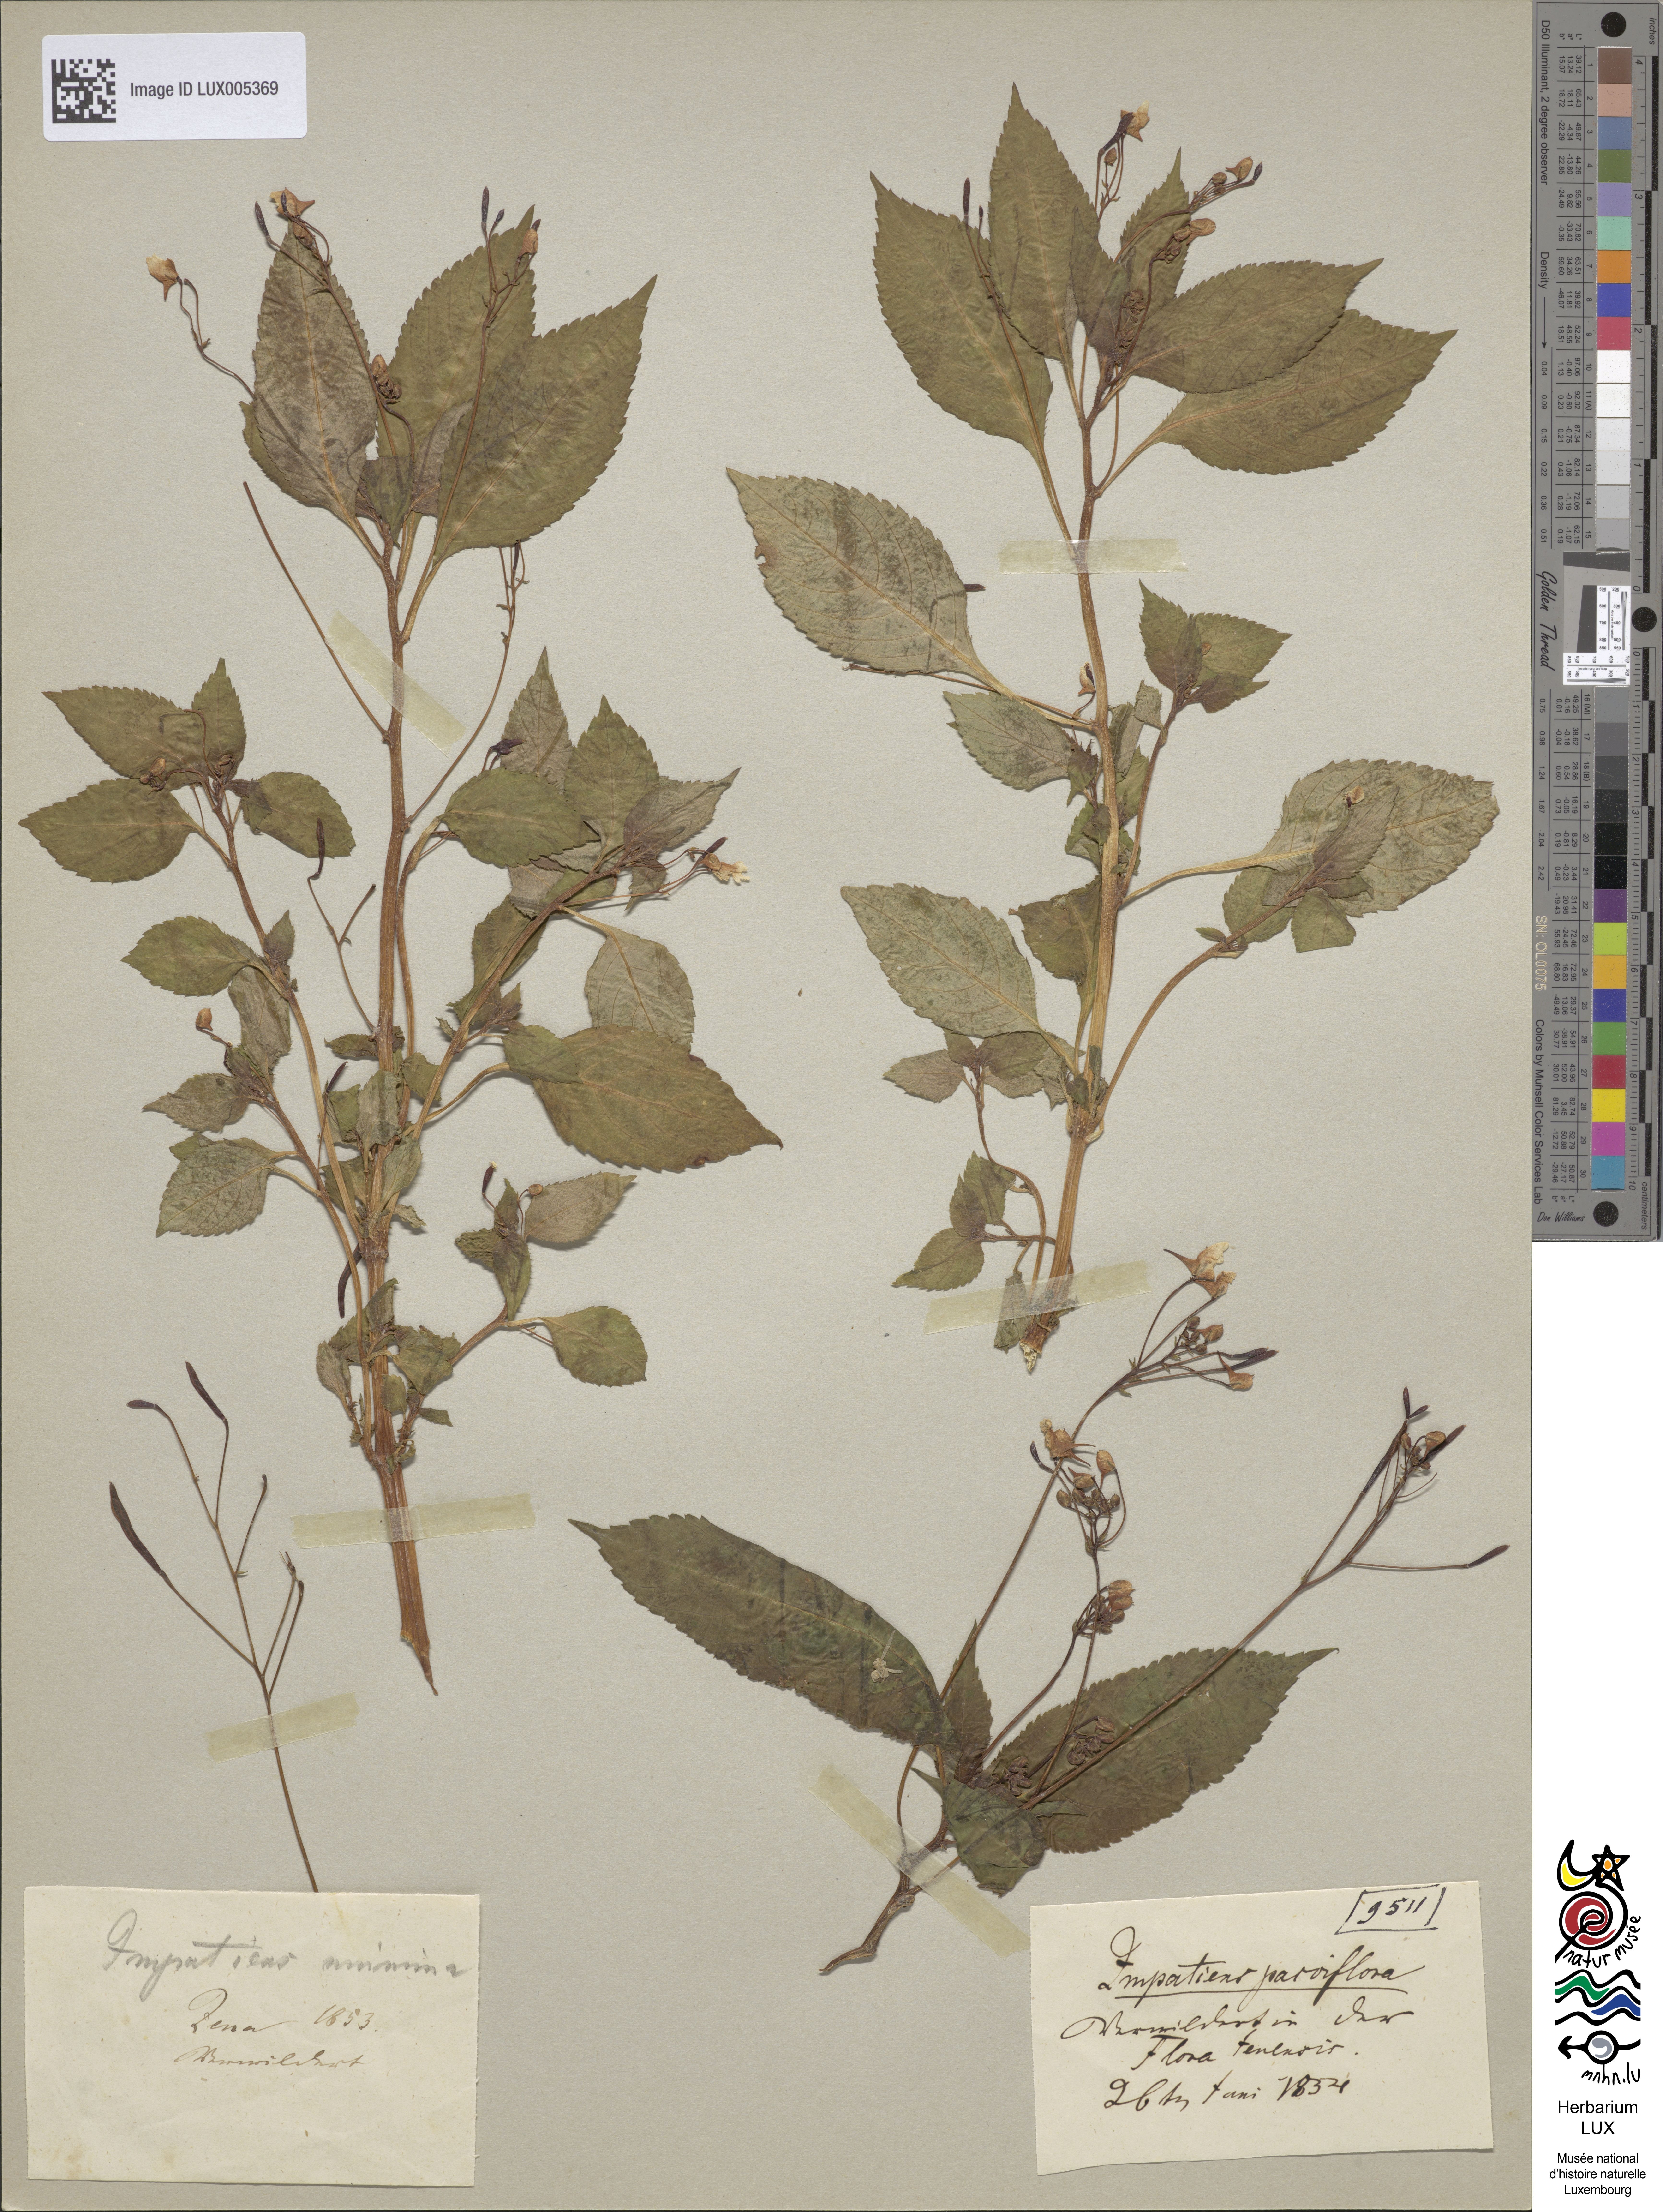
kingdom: Plantae
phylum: Tracheophyta
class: Magnoliopsida
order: Ericales
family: Balsaminaceae
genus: Impatiens
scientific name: Impatiens parviflora
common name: Small balsam
